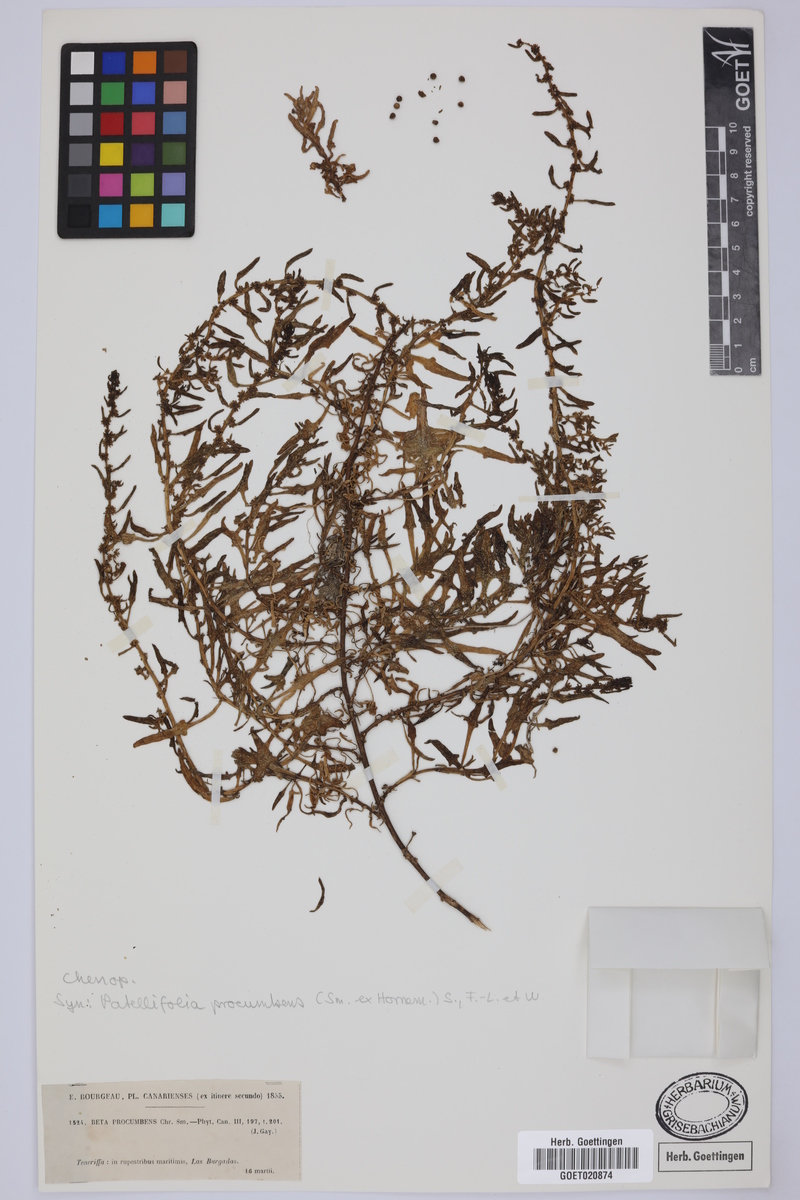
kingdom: Plantae
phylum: Tracheophyta
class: Magnoliopsida
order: Caryophyllales
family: Amaranthaceae
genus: Patellifolia
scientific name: Patellifolia procumbens
